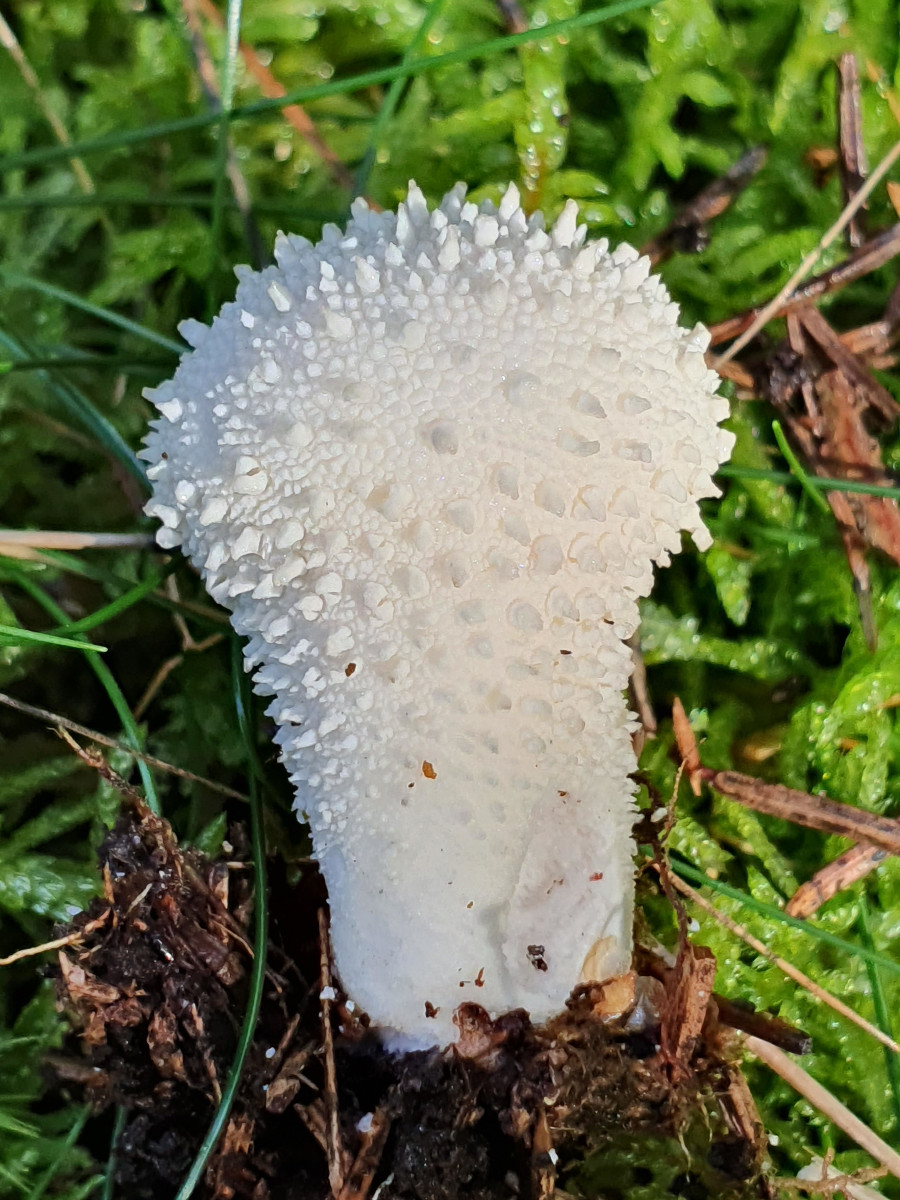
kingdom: Fungi
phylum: Basidiomycota
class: Agaricomycetes
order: Agaricales
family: Lycoperdaceae
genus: Lycoperdon
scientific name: Lycoperdon perlatum
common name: krystal-støvbold
